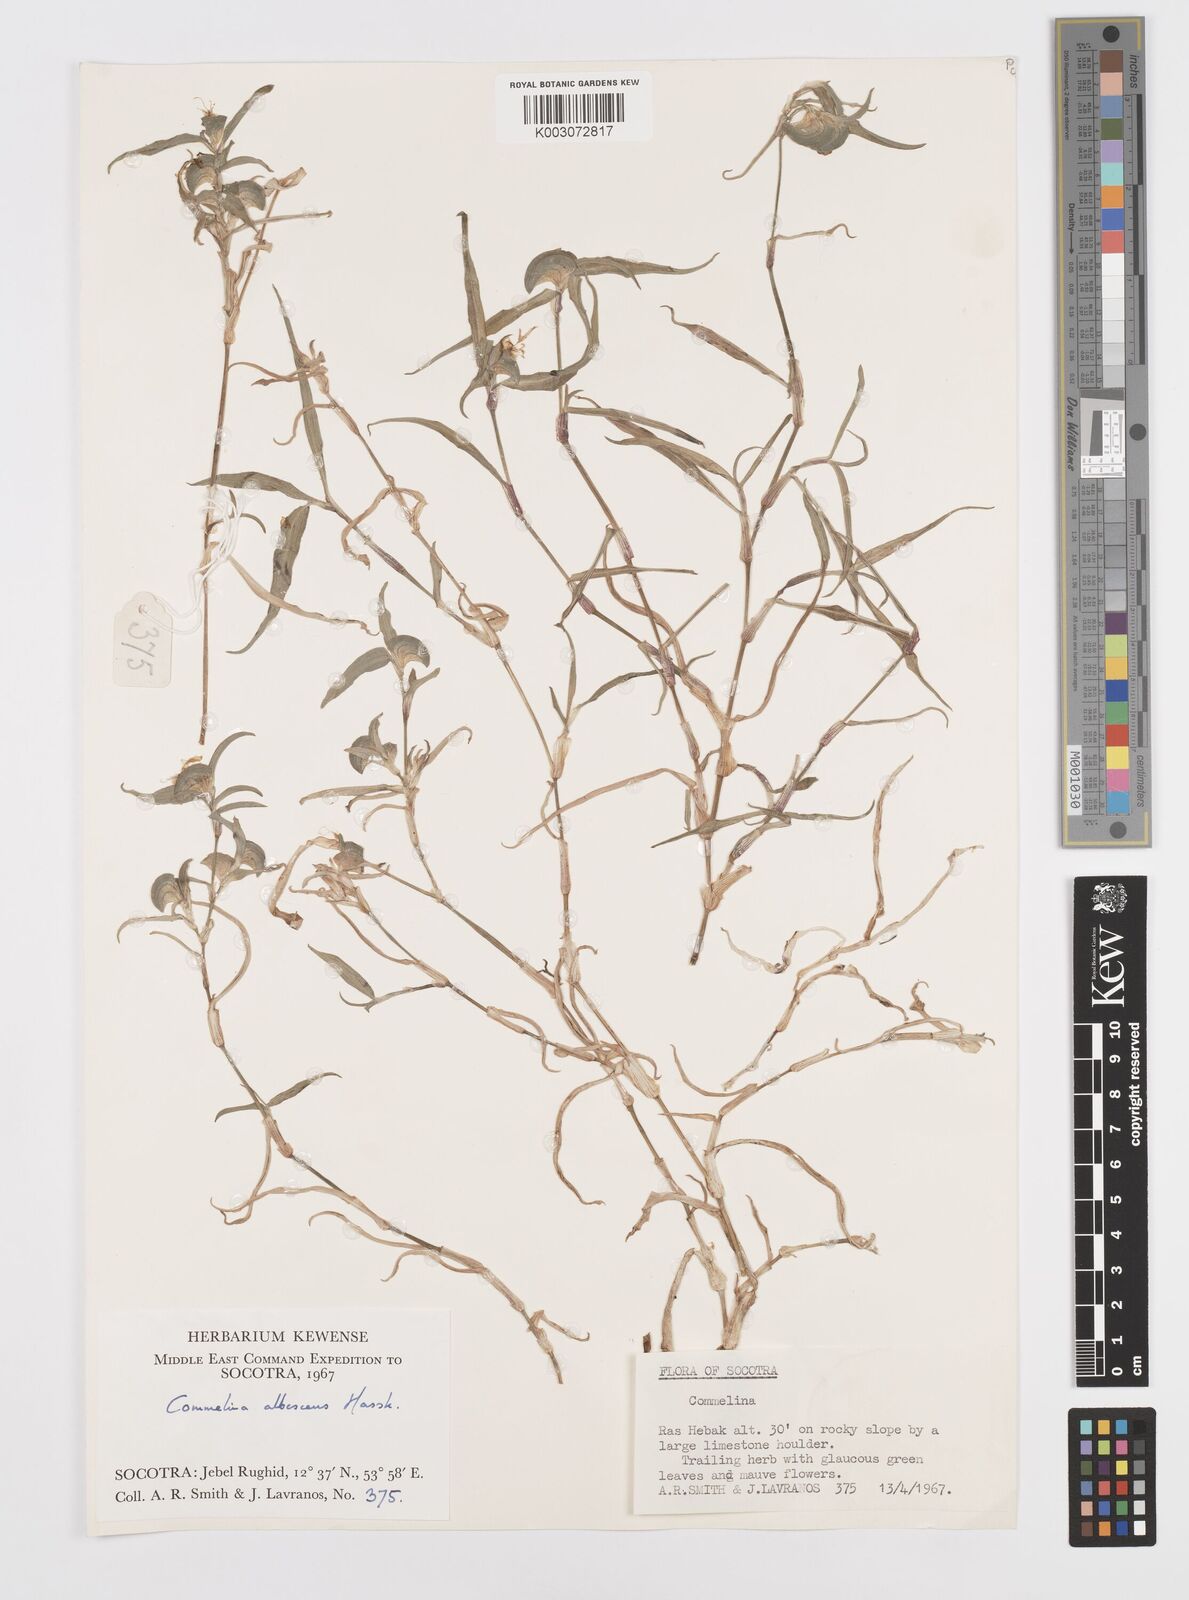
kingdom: Plantae
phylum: Tracheophyta
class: Liliopsida
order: Commelinales
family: Commelinaceae
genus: Commelina
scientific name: Commelina albescens
